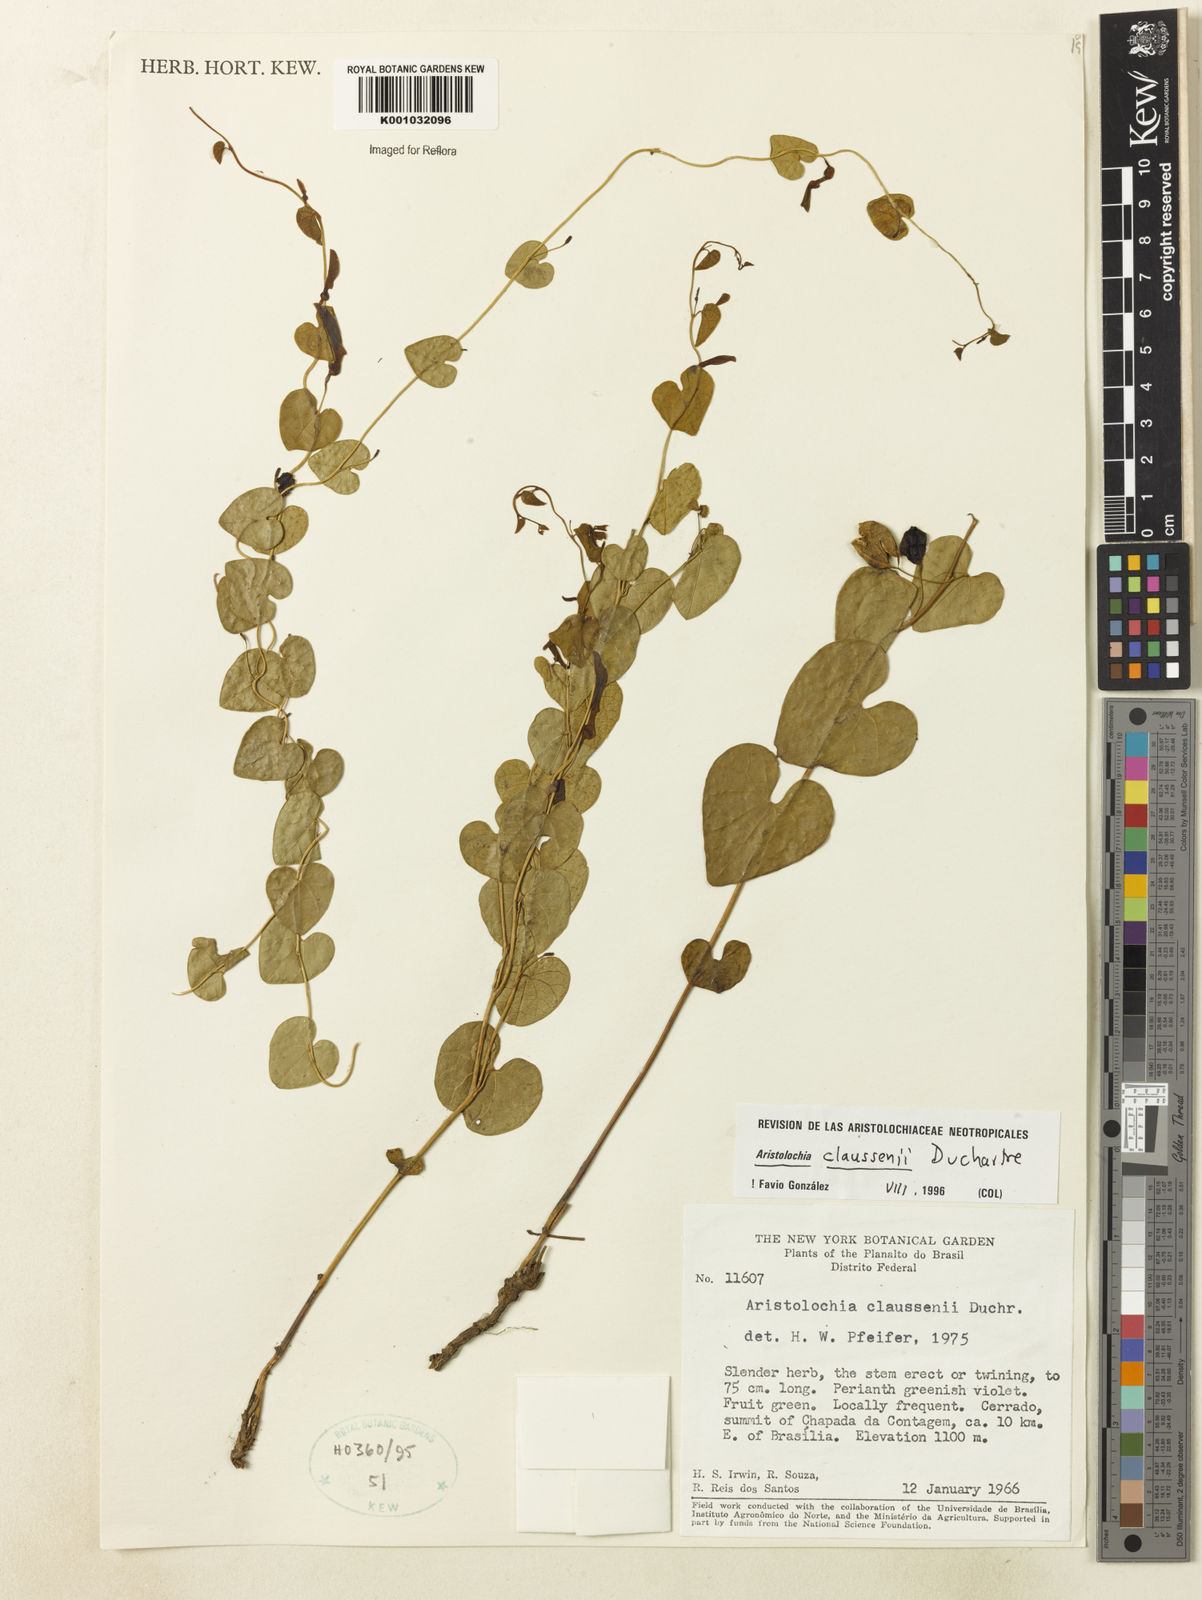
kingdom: Plantae
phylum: Tracheophyta
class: Magnoliopsida
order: Piperales
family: Aristolochiaceae
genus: Aristolochia
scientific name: Aristolochia nummularifolia
